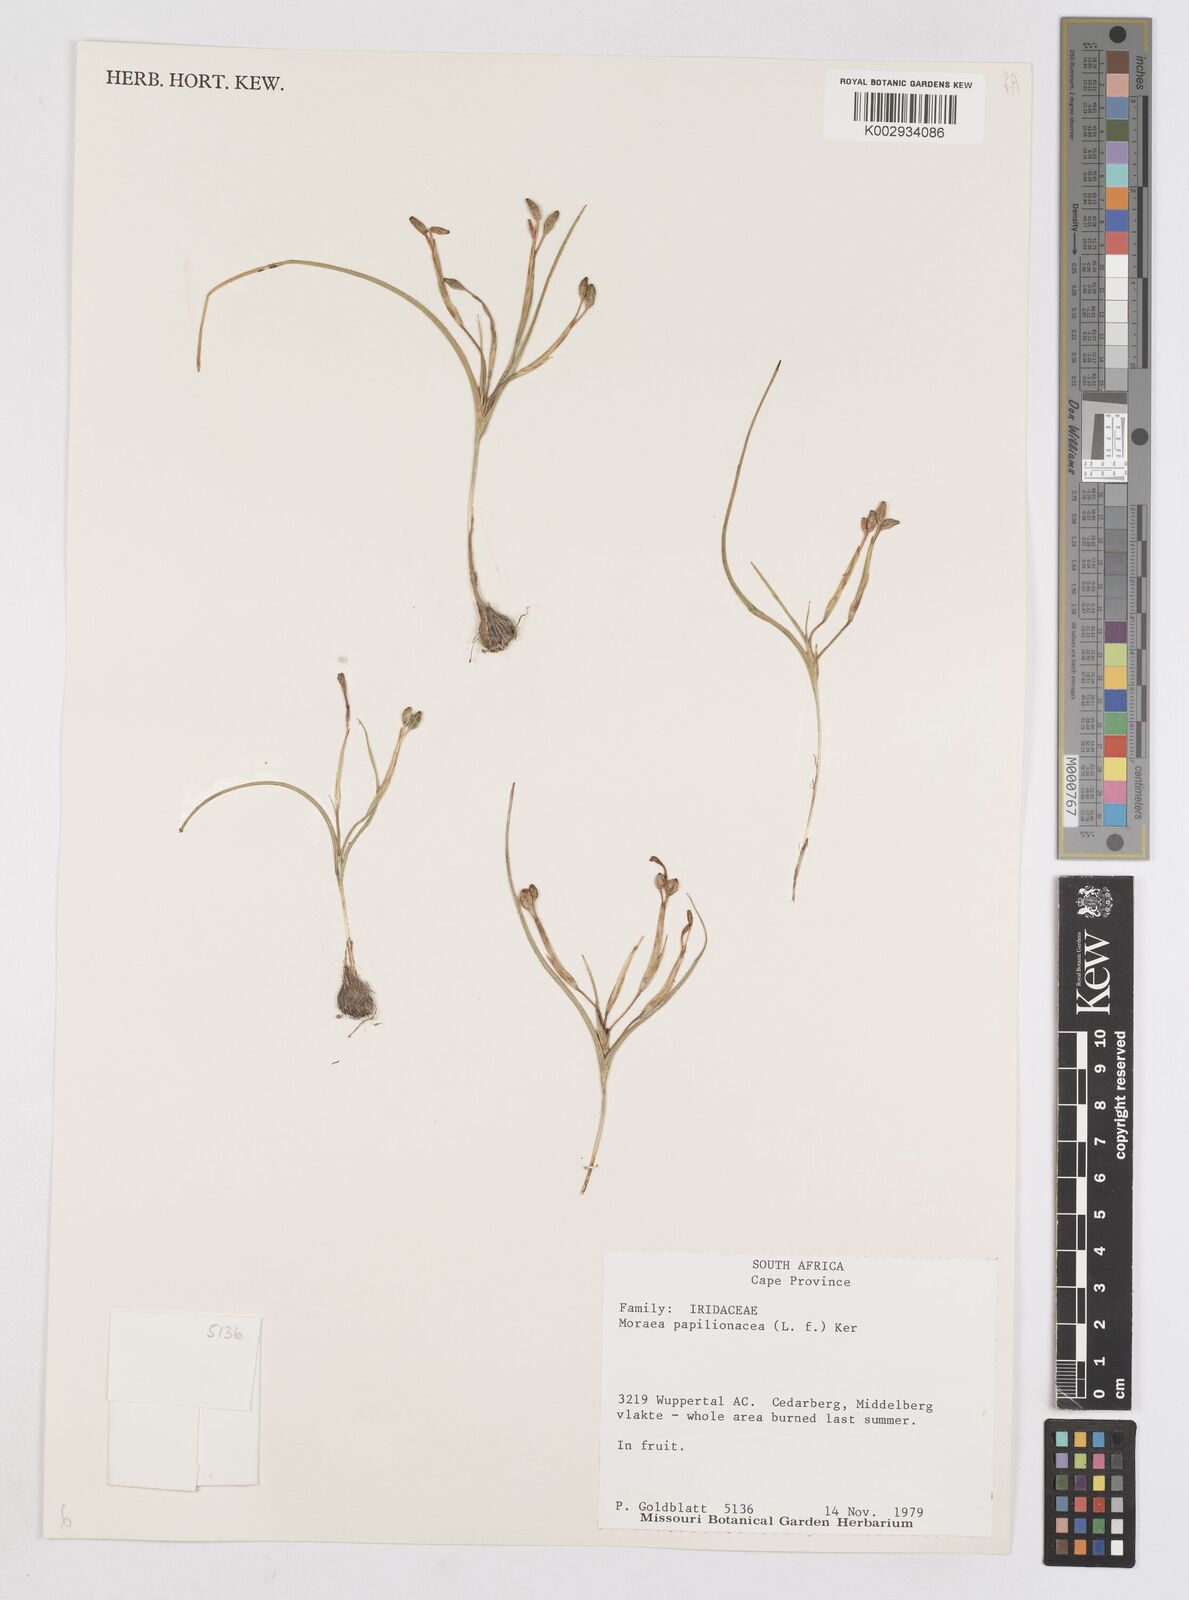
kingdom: Plantae
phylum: Tracheophyta
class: Liliopsida
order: Asparagales
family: Iridaceae
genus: Moraea
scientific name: Moraea papilionacea
